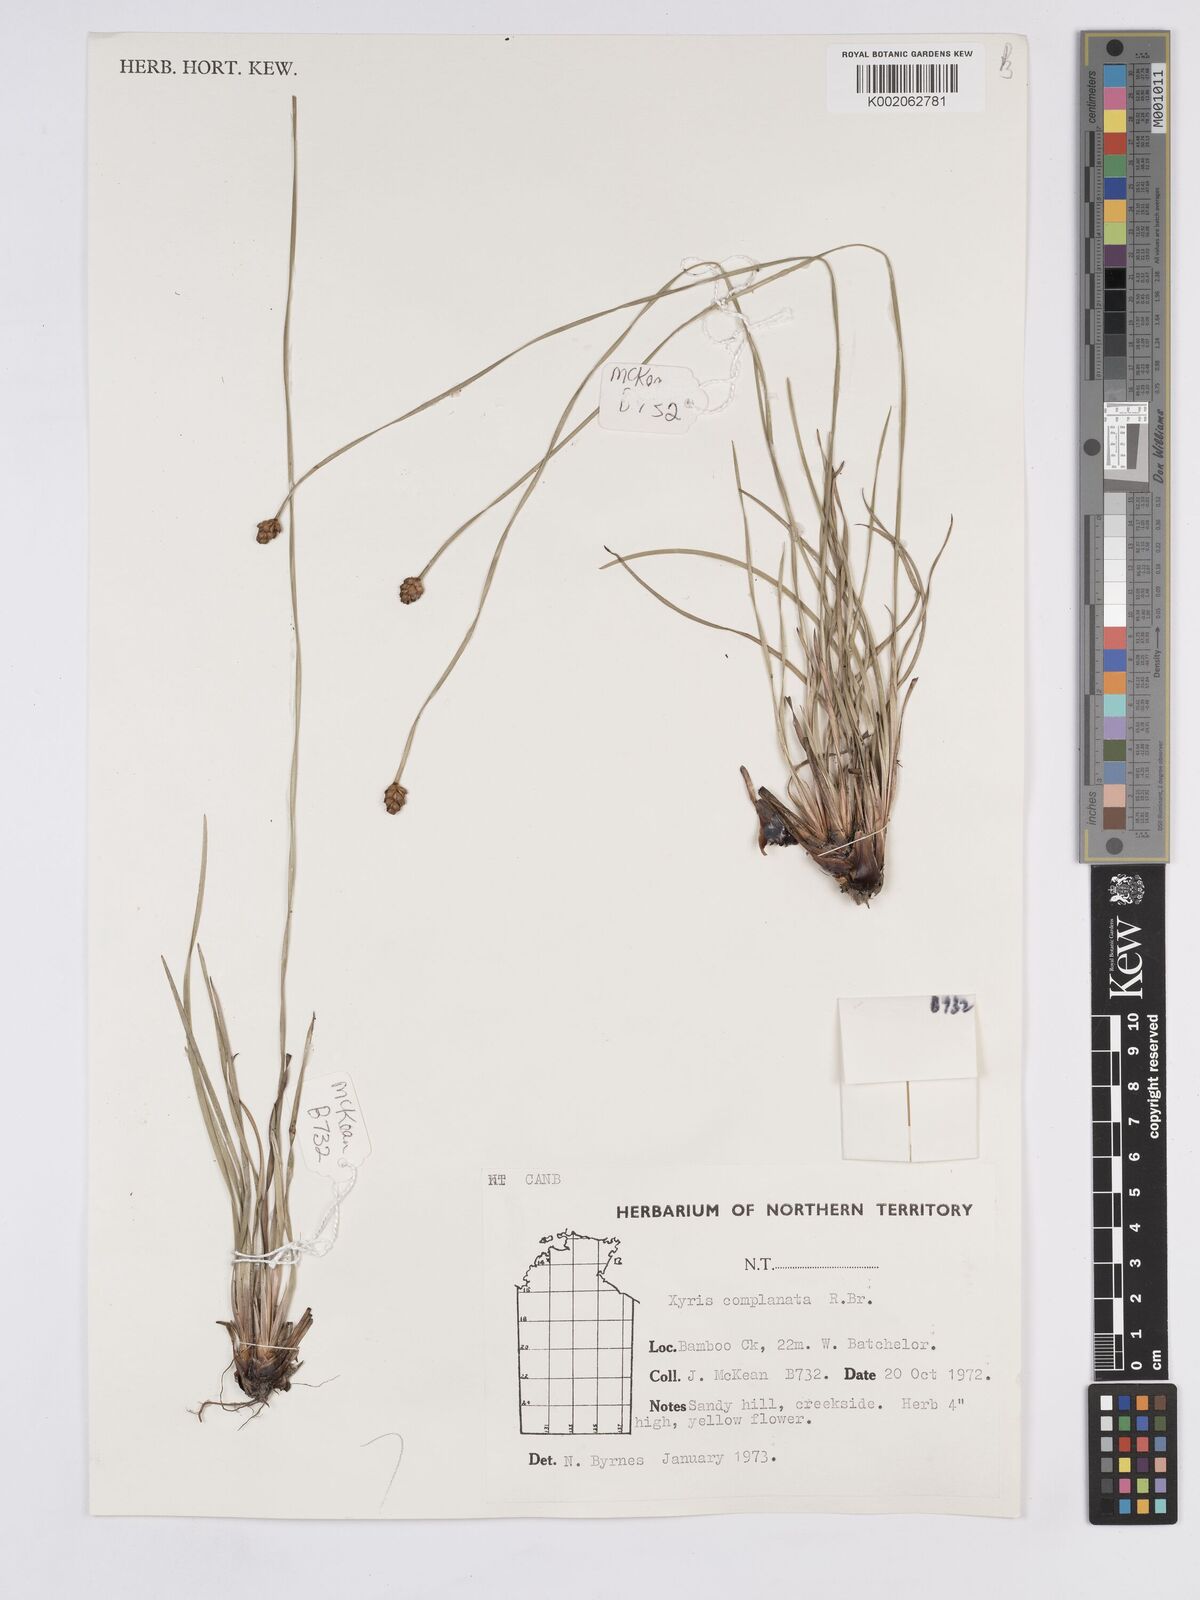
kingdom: Plantae
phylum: Tracheophyta
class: Liliopsida
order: Poales
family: Xyridaceae
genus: Xyris
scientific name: Xyris complanata
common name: Hawai'i yelloweyed grass
